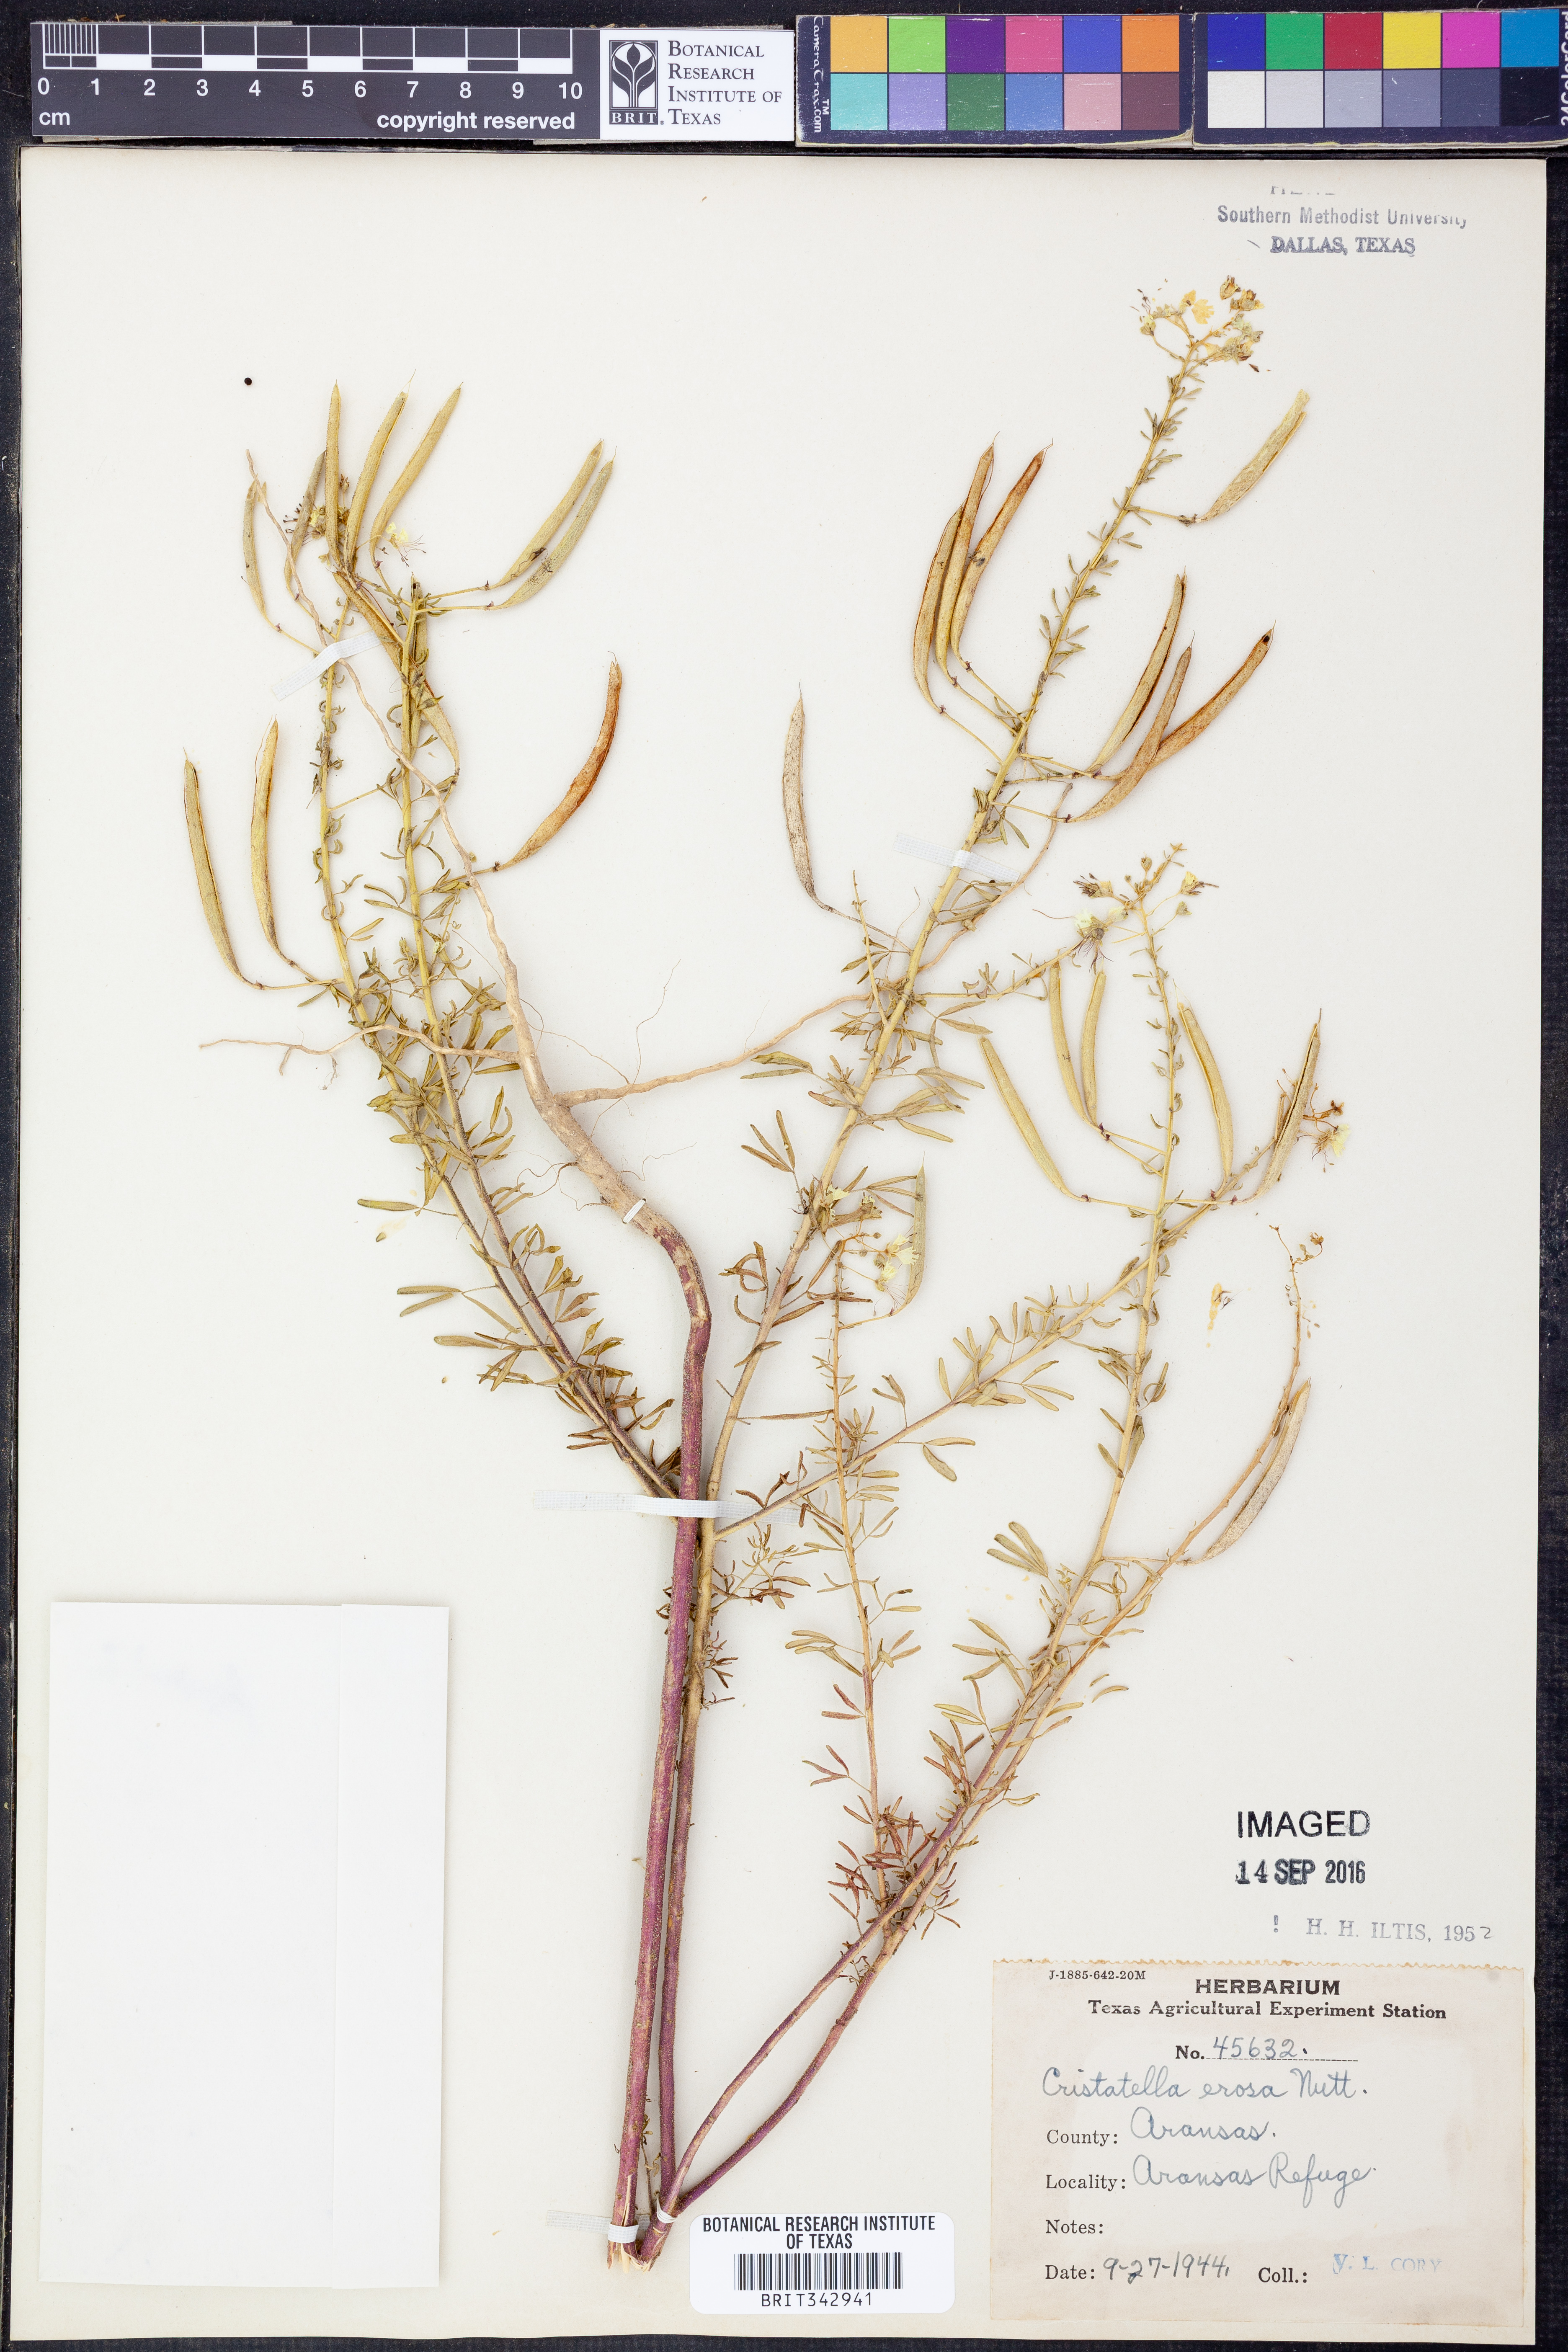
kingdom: Plantae
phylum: Tracheophyta
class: Magnoliopsida
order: Brassicales
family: Cleomaceae
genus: Polanisia
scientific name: Polanisia erosa
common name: Large clammyweed
